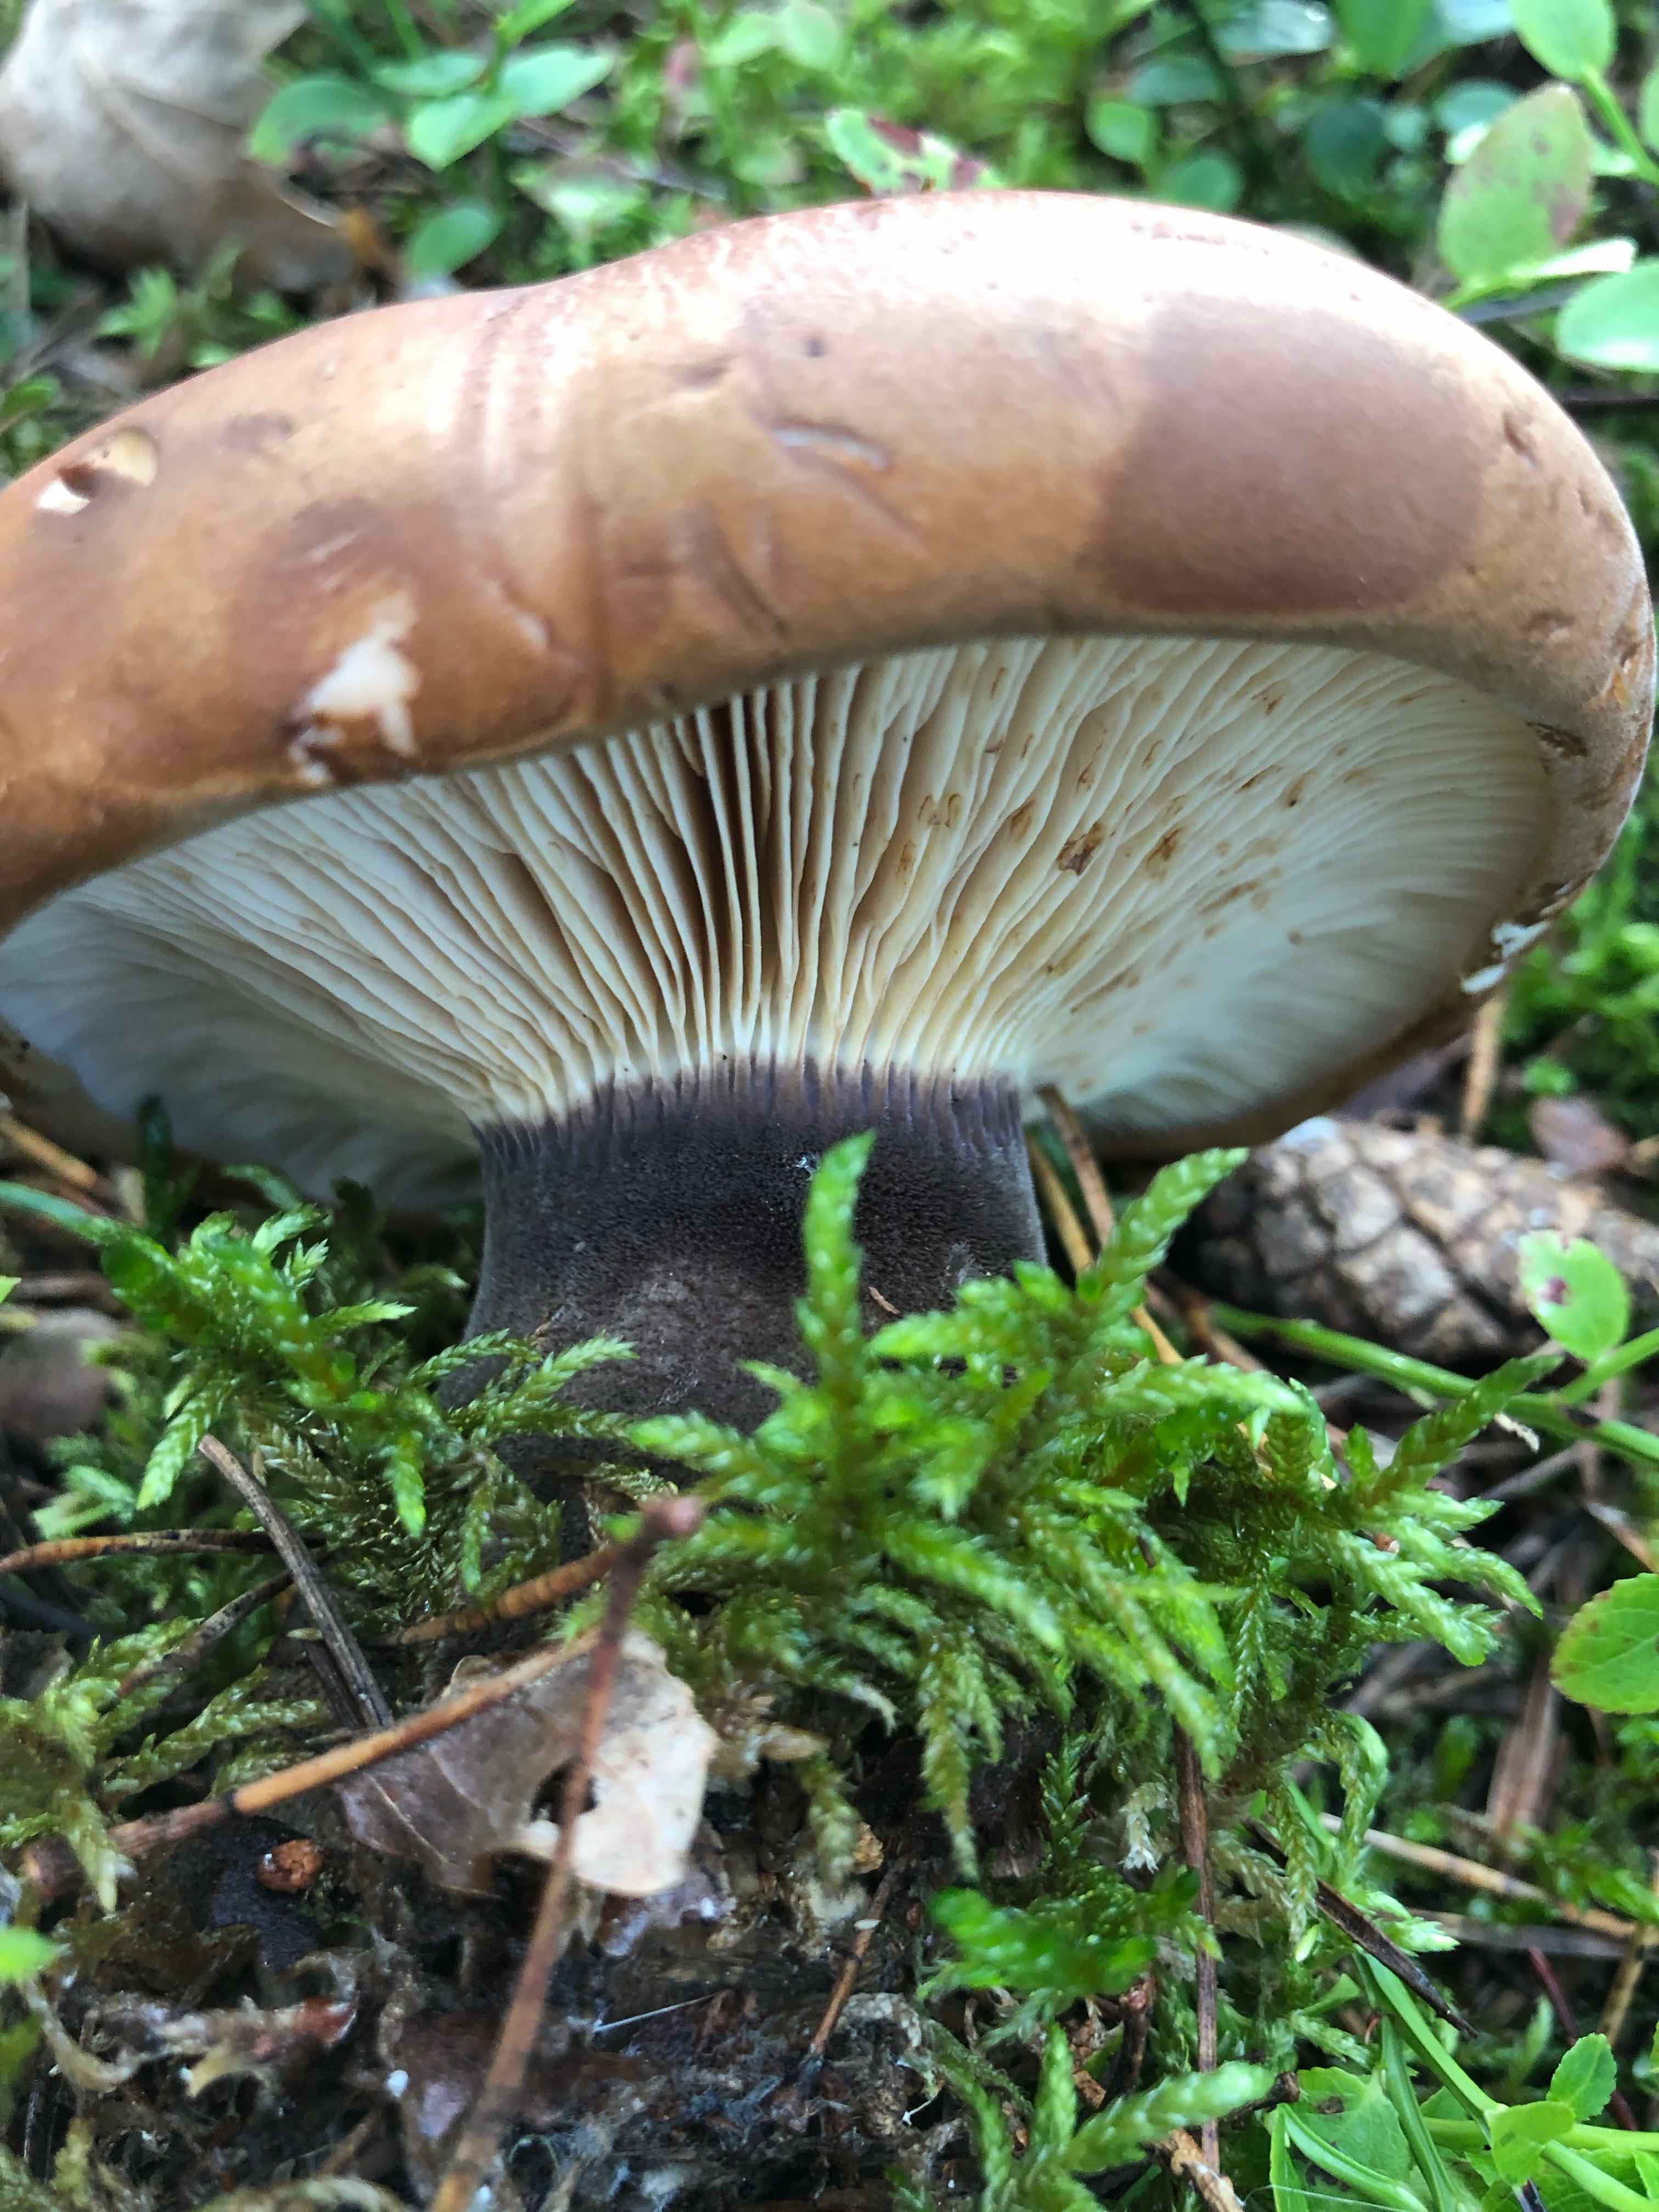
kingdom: Fungi
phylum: Basidiomycota
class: Agaricomycetes
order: Boletales
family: Tapinellaceae
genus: Tapinella
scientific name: Tapinella atrotomentosa
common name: sortfiltet viftesvamp
